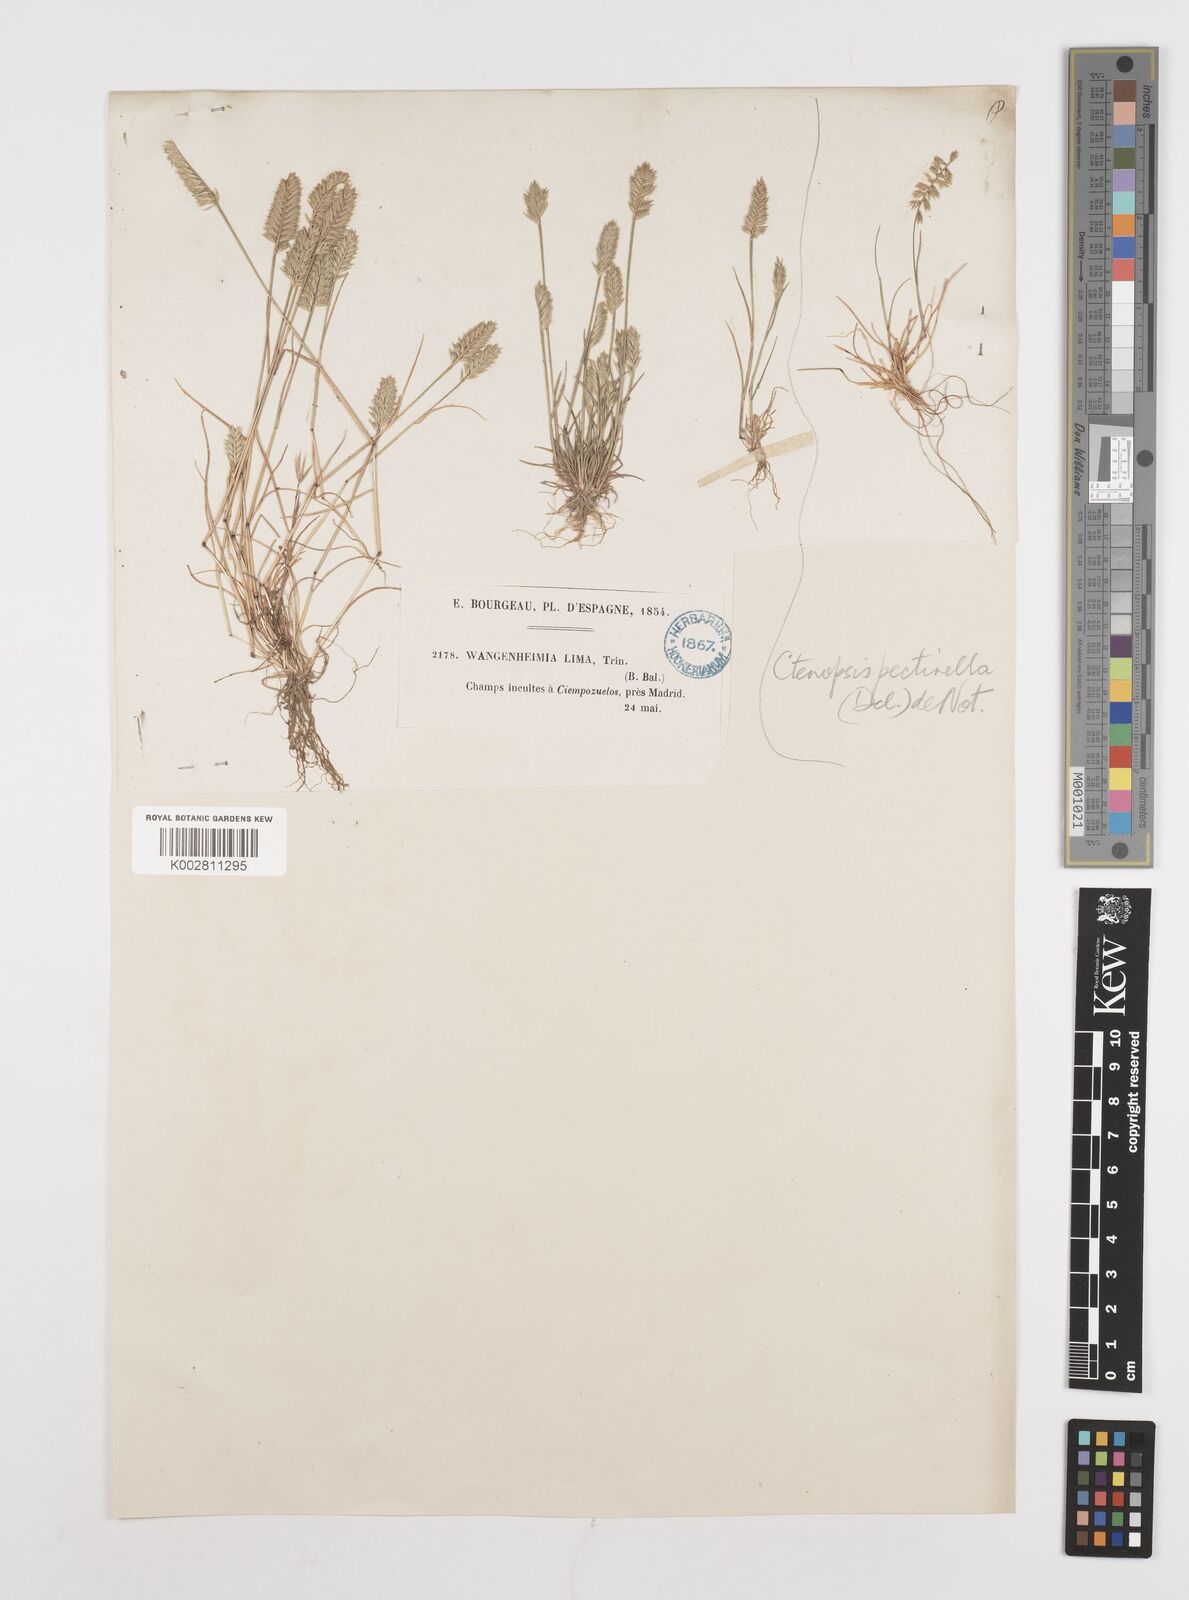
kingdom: Plantae
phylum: Tracheophyta
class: Liliopsida
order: Poales
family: Poaceae
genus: Wangenheimia
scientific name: Wangenheimia lima
